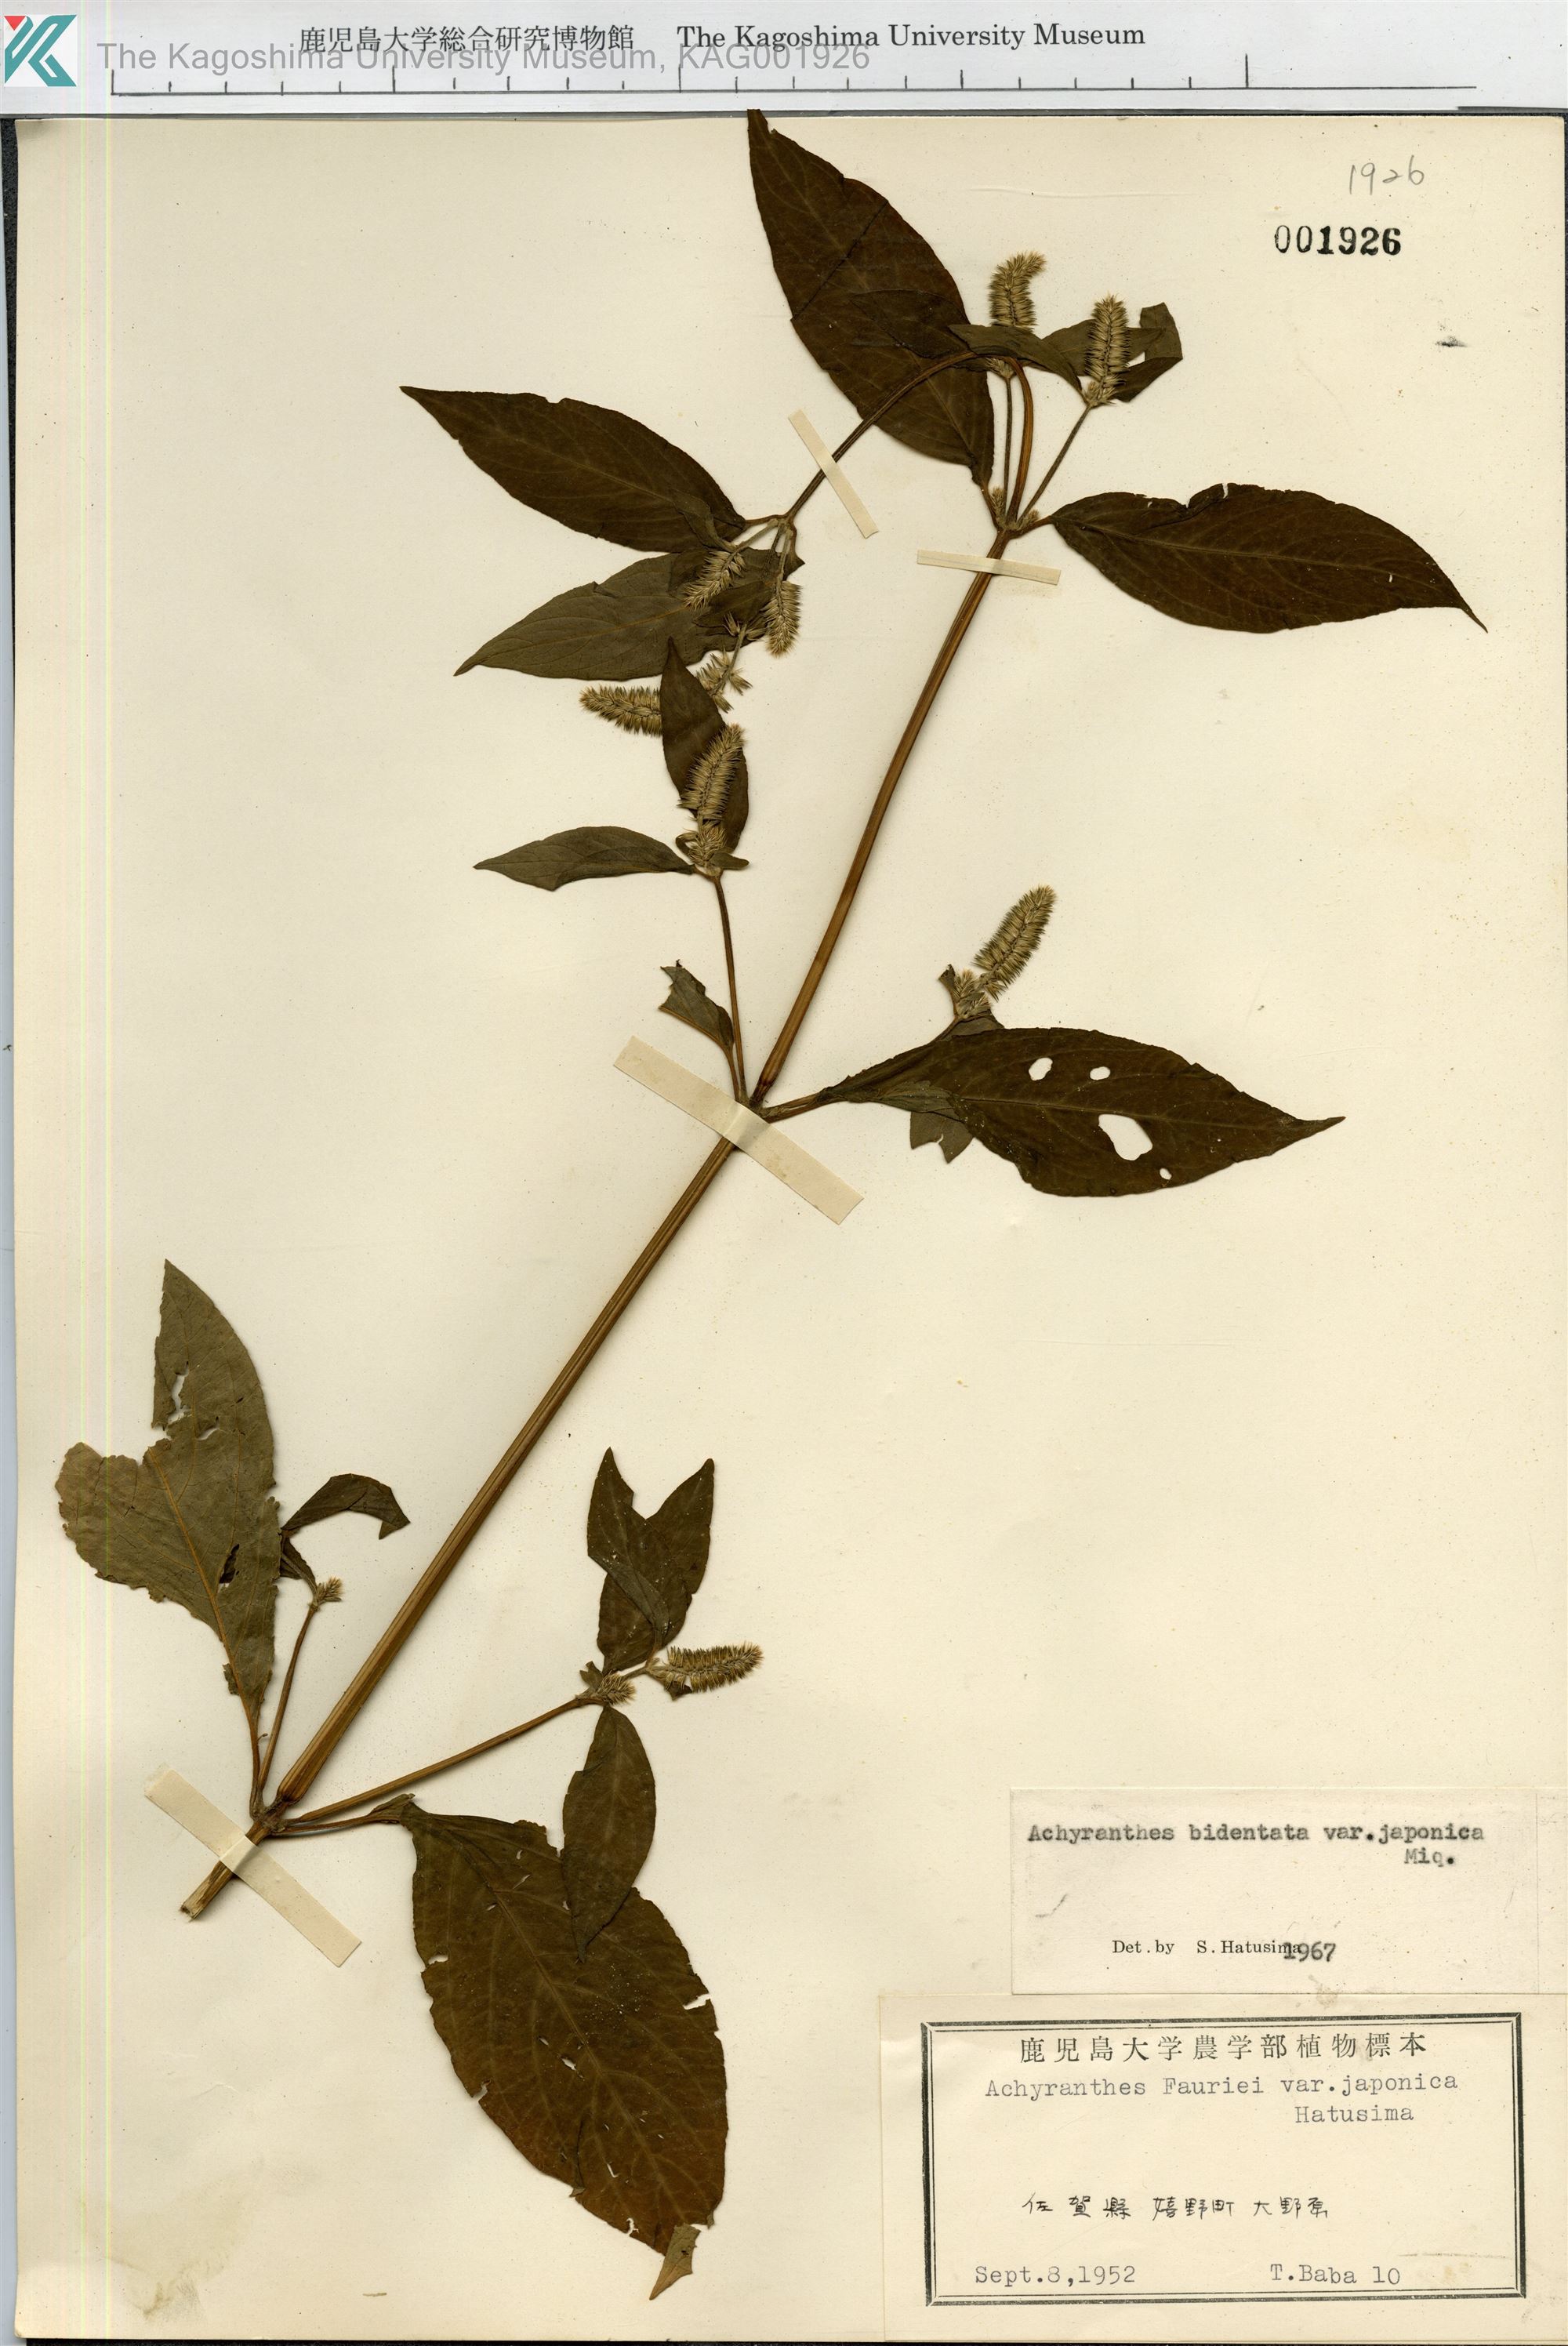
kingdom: Plantae
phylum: Tracheophyta
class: Magnoliopsida
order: Caryophyllales
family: Amaranthaceae
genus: Achyranthes
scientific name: Achyranthes bidentata
